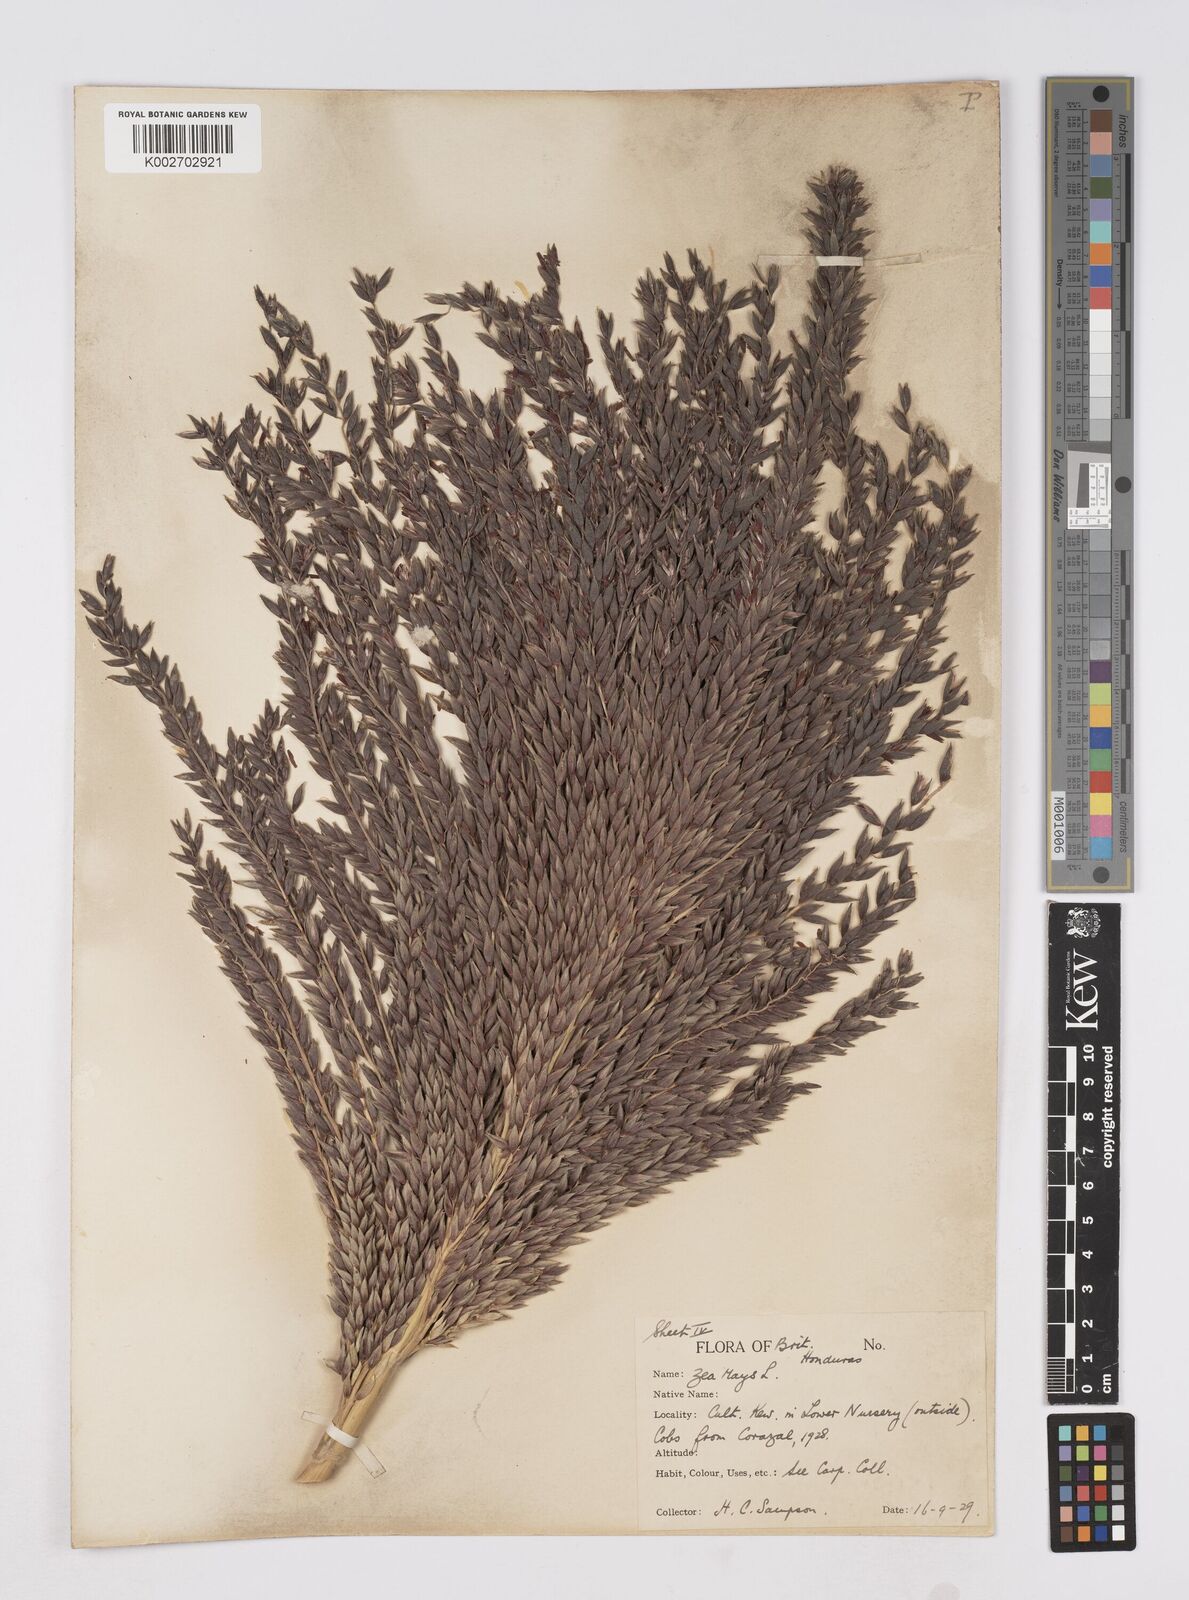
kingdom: Plantae
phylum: Tracheophyta
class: Liliopsida
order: Poales
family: Poaceae
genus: Zea
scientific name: Zea mays
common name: Maize
